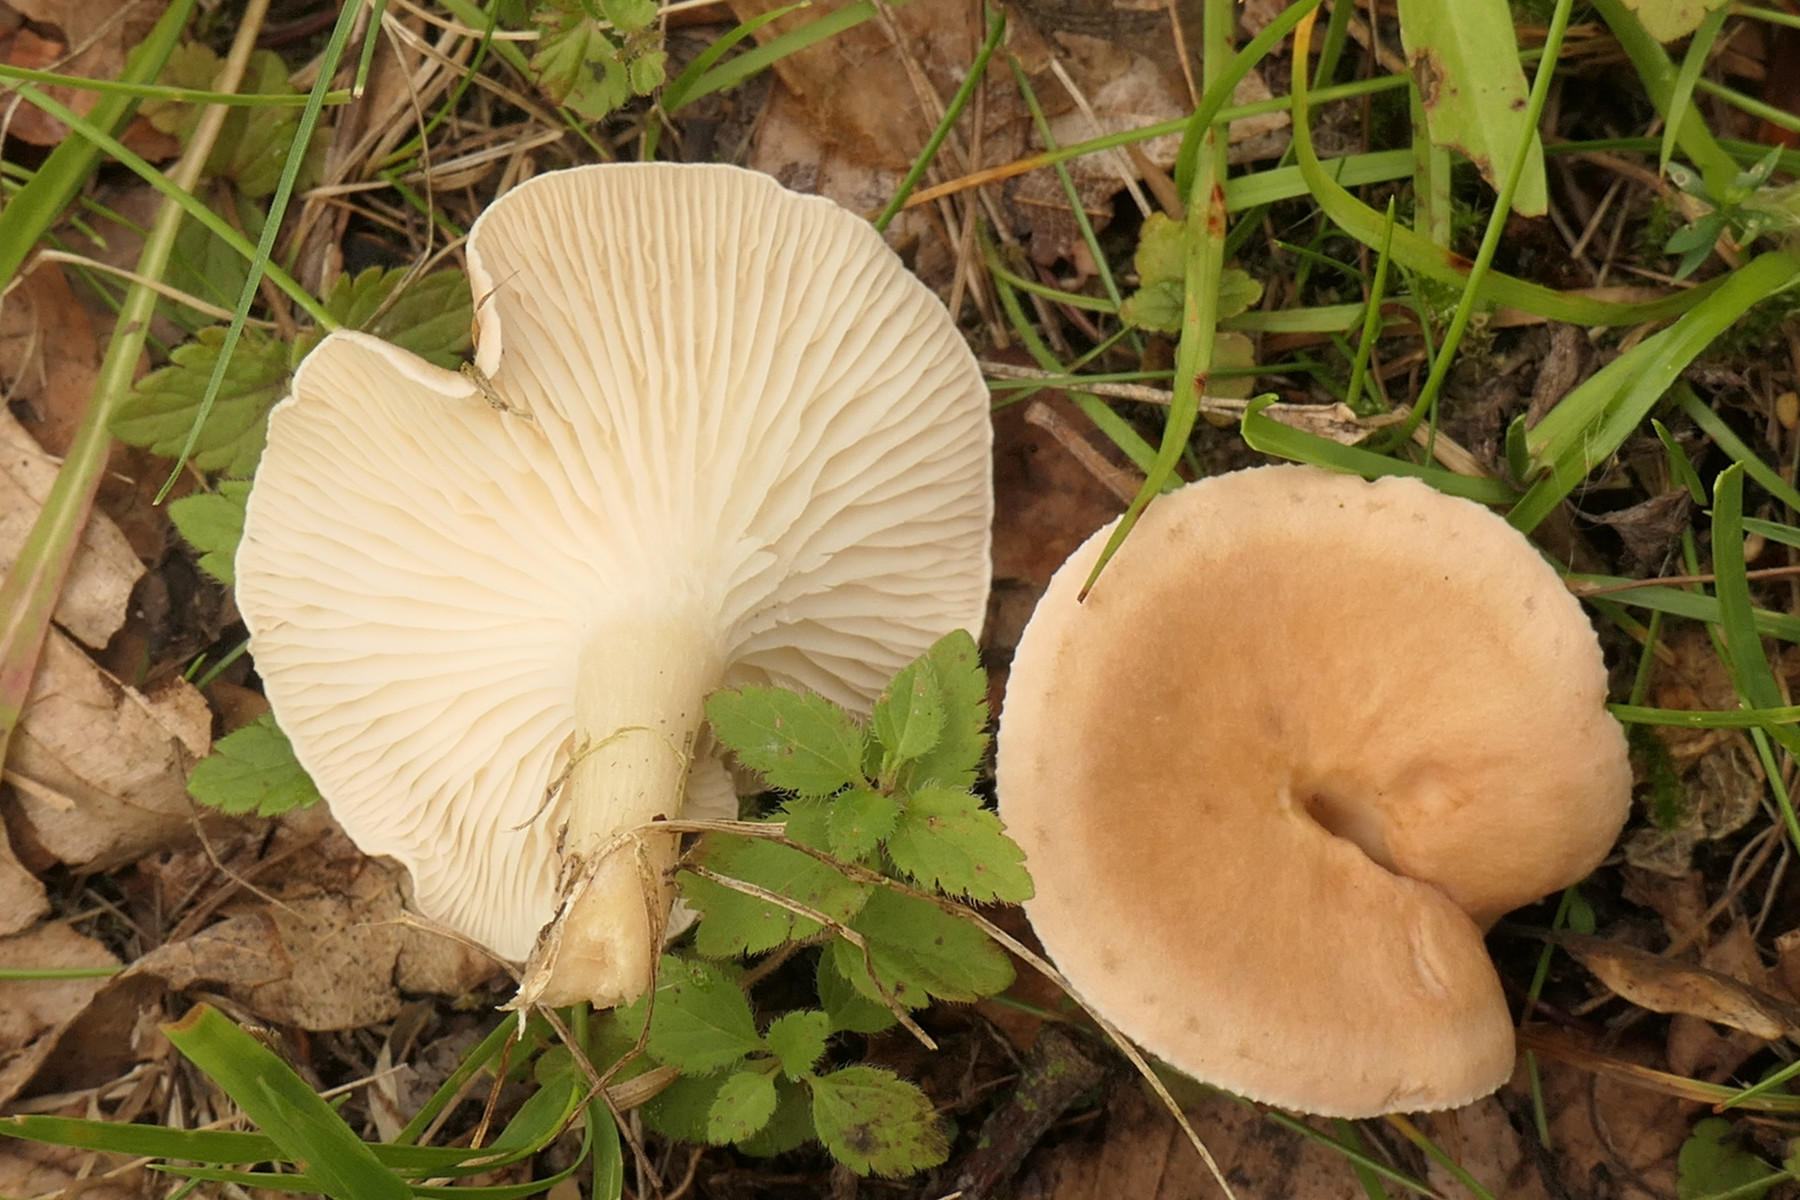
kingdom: Fungi
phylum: Basidiomycota
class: Agaricomycetes
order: Agaricales
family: Tricholomataceae
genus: Infundibulicybe
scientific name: Infundibulicybe gibba
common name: almindelig tragthat
